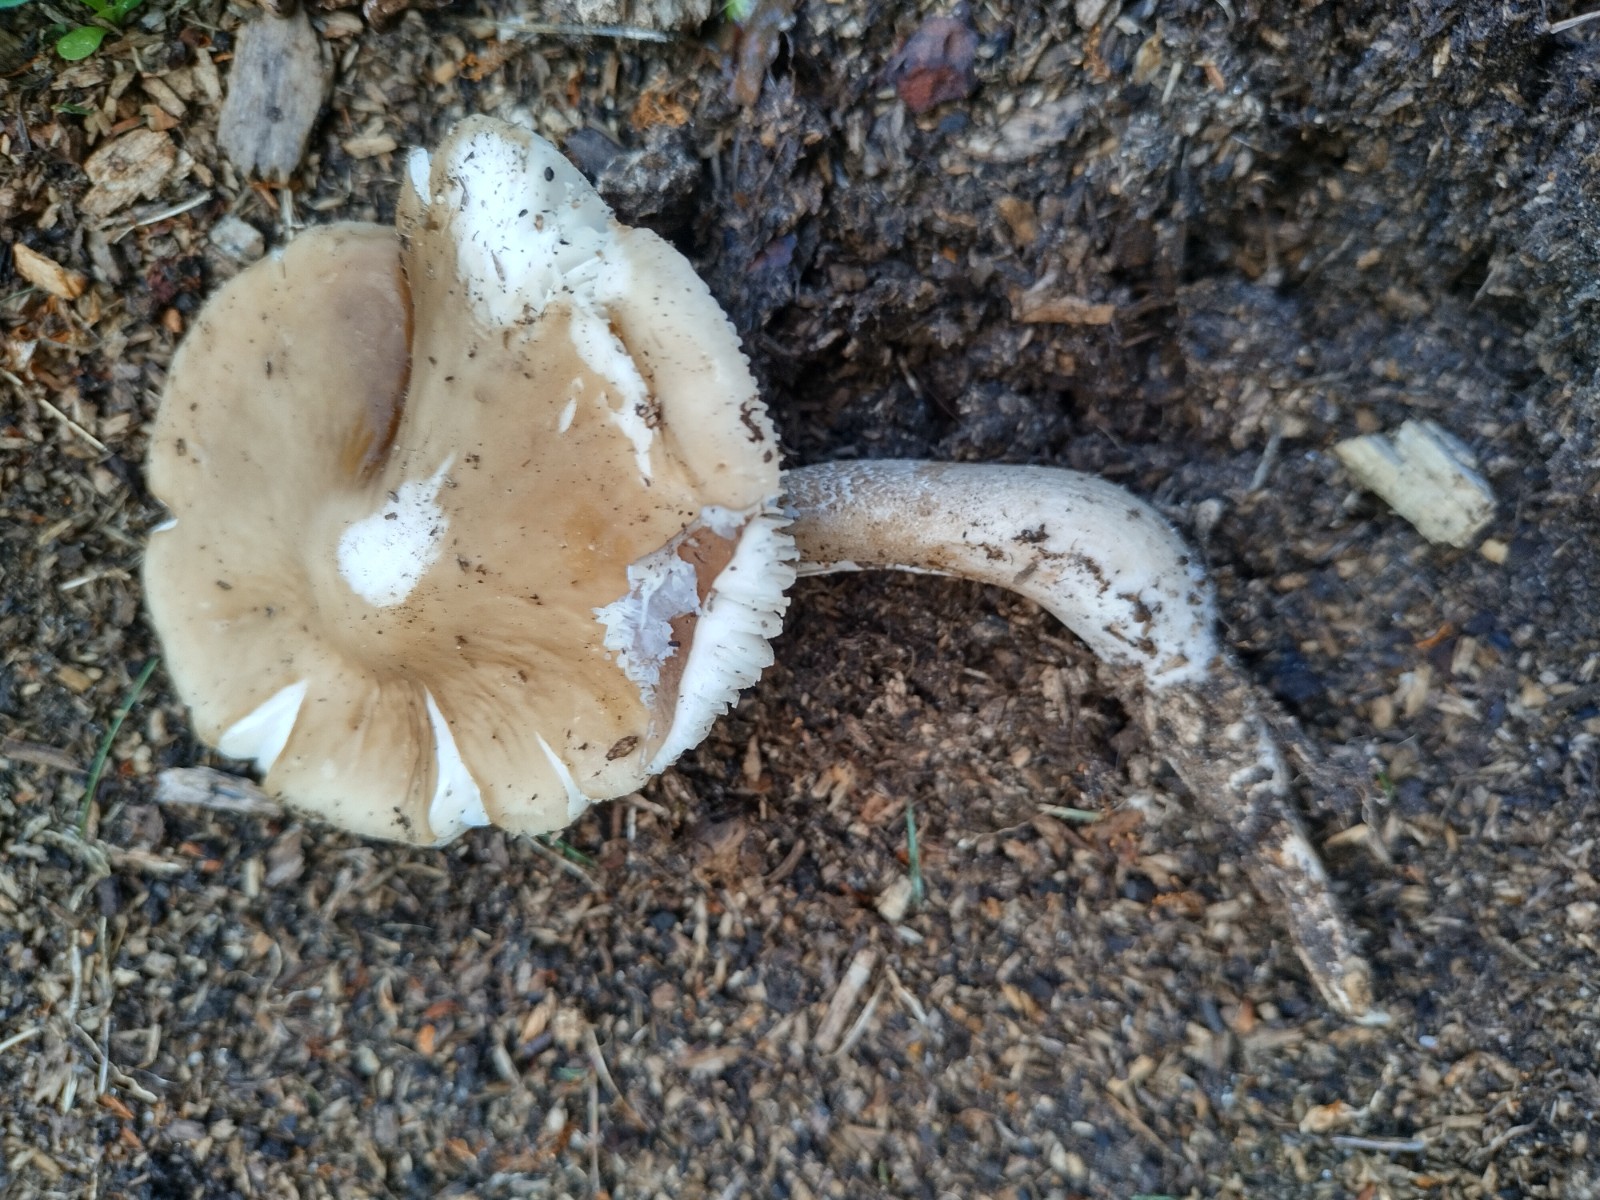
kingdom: Fungi
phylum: Basidiomycota
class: Agaricomycetes
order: Agaricales
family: Physalacriaceae
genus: Hymenopellis
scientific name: Hymenopellis radicata
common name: almindelig pælerodshat
